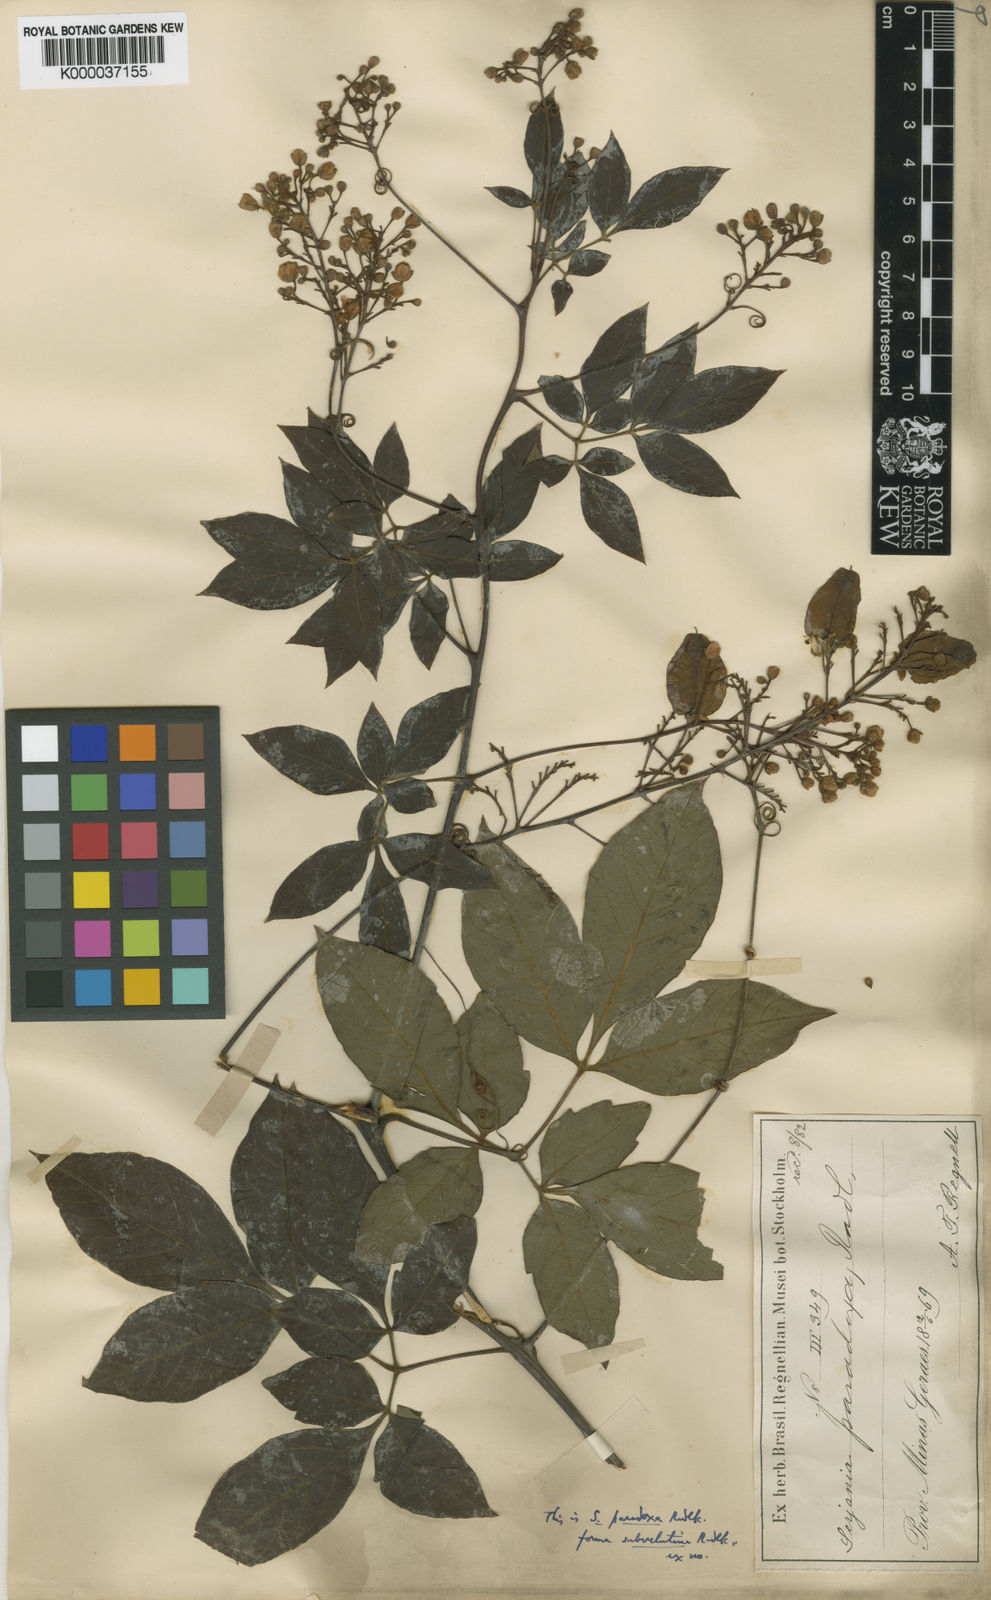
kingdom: Plantae
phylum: Tracheophyta
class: Magnoliopsida
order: Sapindales
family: Sapindaceae
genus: Serjania
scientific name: Serjania paradoxa
